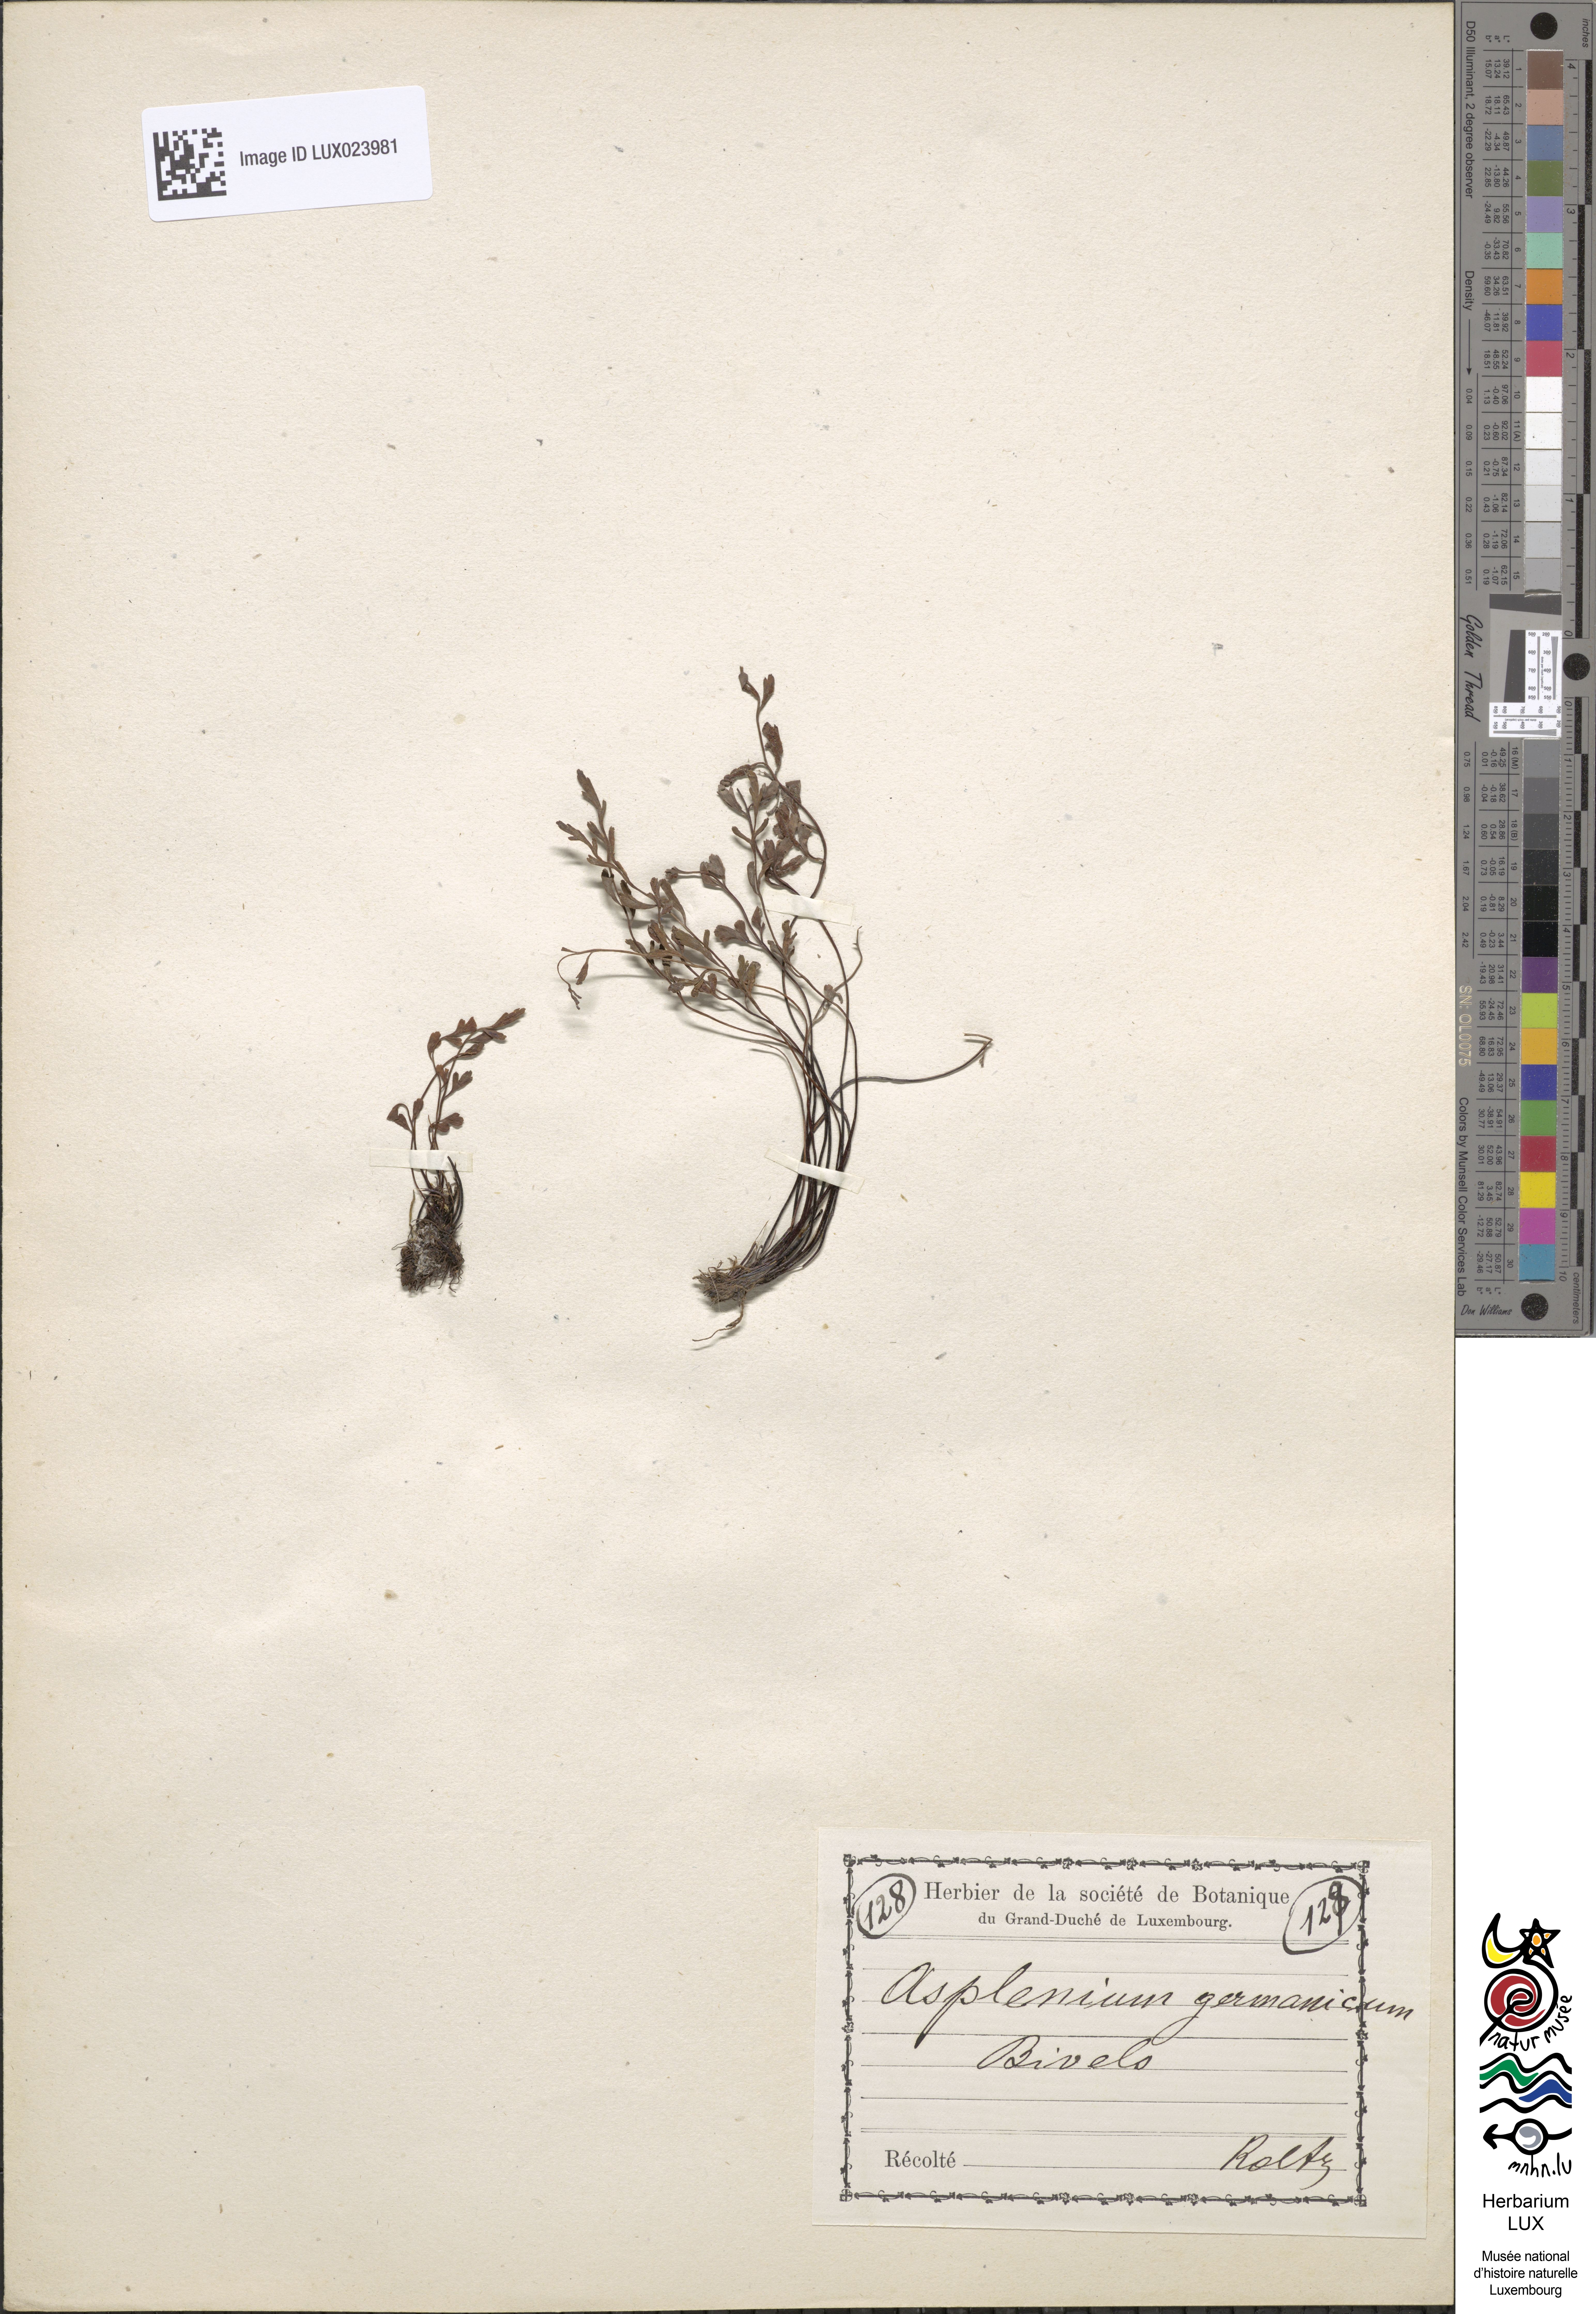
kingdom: Plantae
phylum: Tracheophyta
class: Polypodiopsida
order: Polypodiales
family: Aspleniaceae
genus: Asplenium
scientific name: Asplenium
